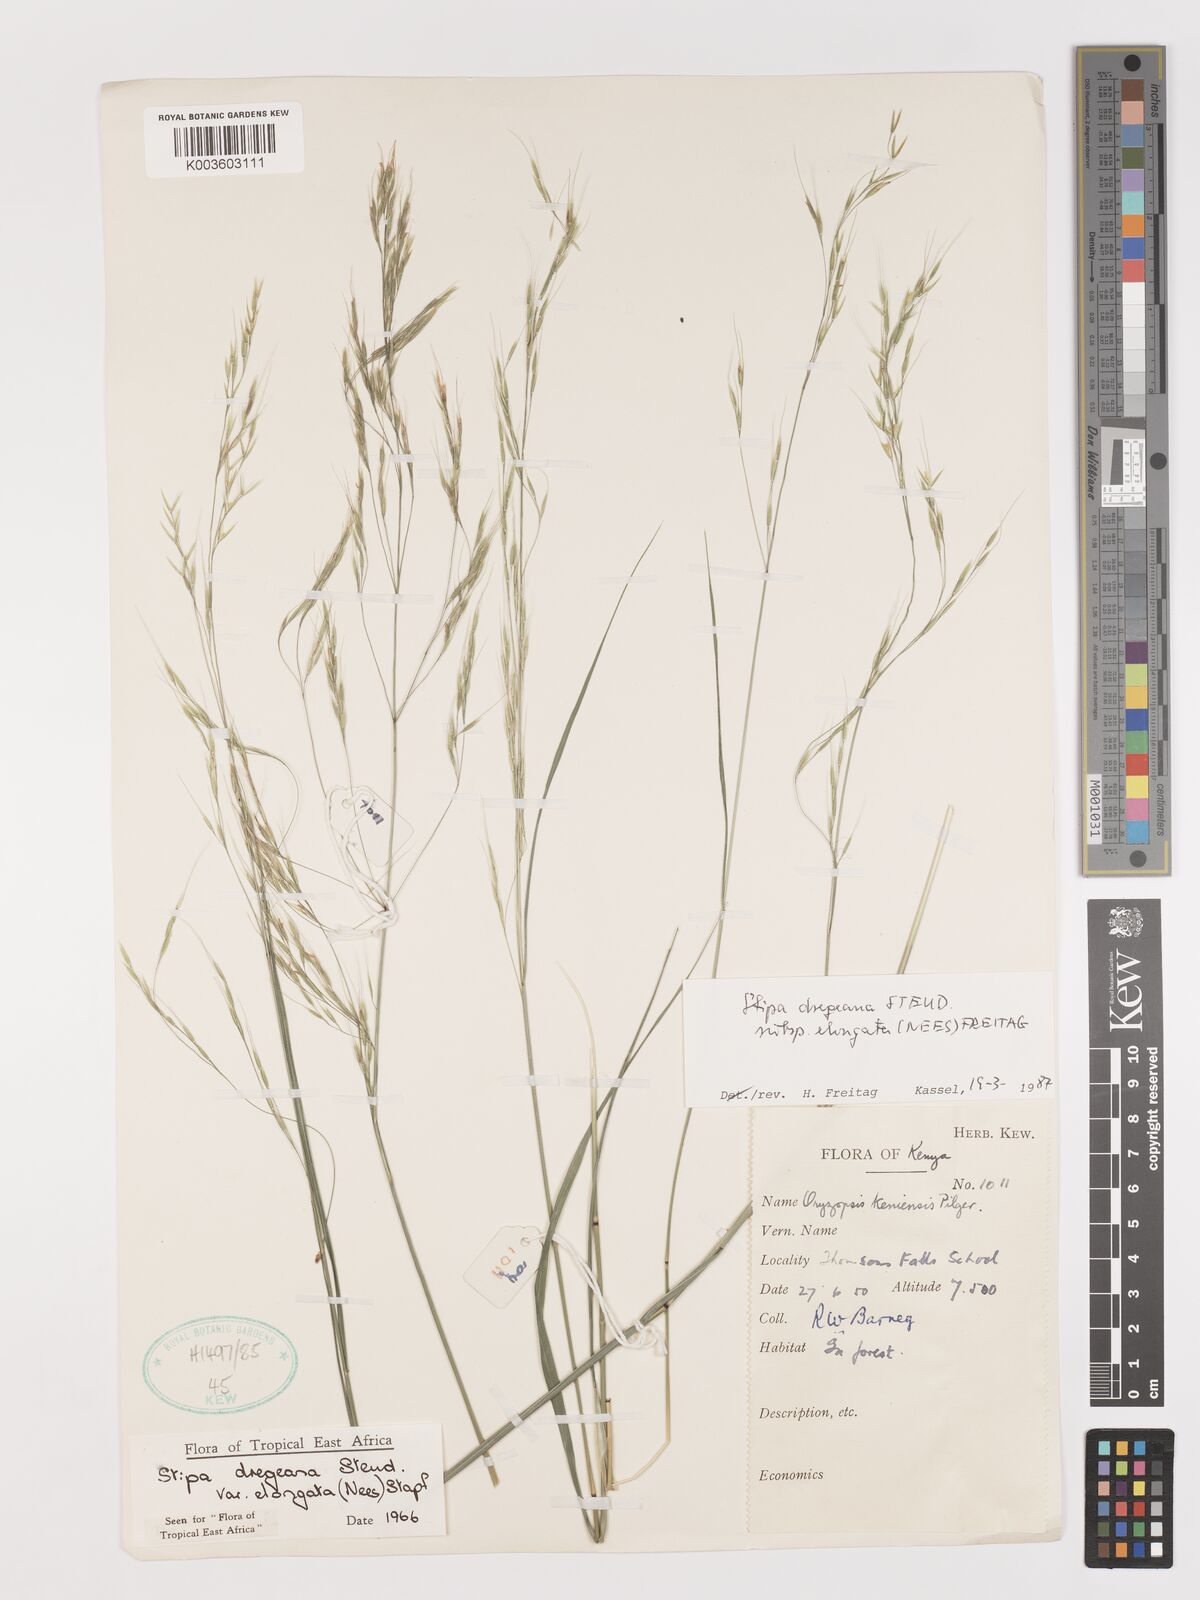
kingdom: Plantae
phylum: Tracheophyta
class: Liliopsida
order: Poales
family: Poaceae
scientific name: Poaceae
